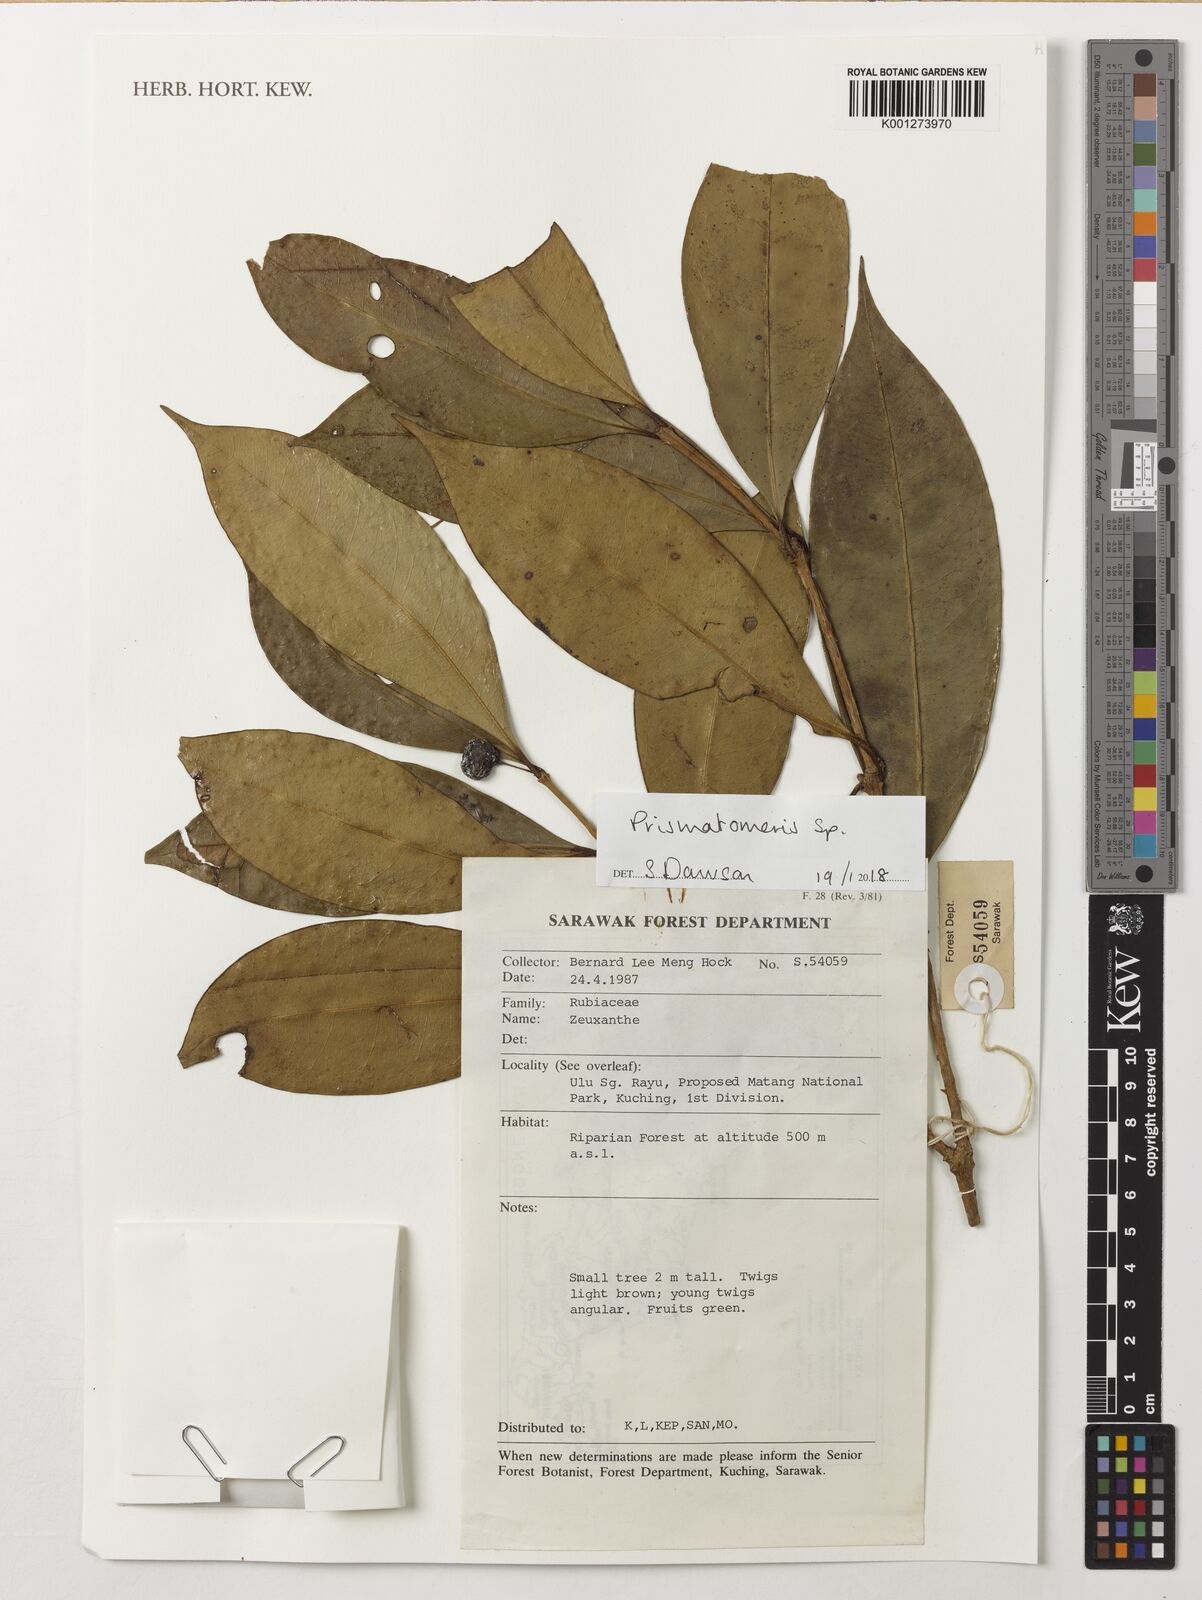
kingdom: Plantae
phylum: Tracheophyta
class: Magnoliopsida
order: Gentianales
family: Rubiaceae
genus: Prismatomeris
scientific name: Prismatomeris
